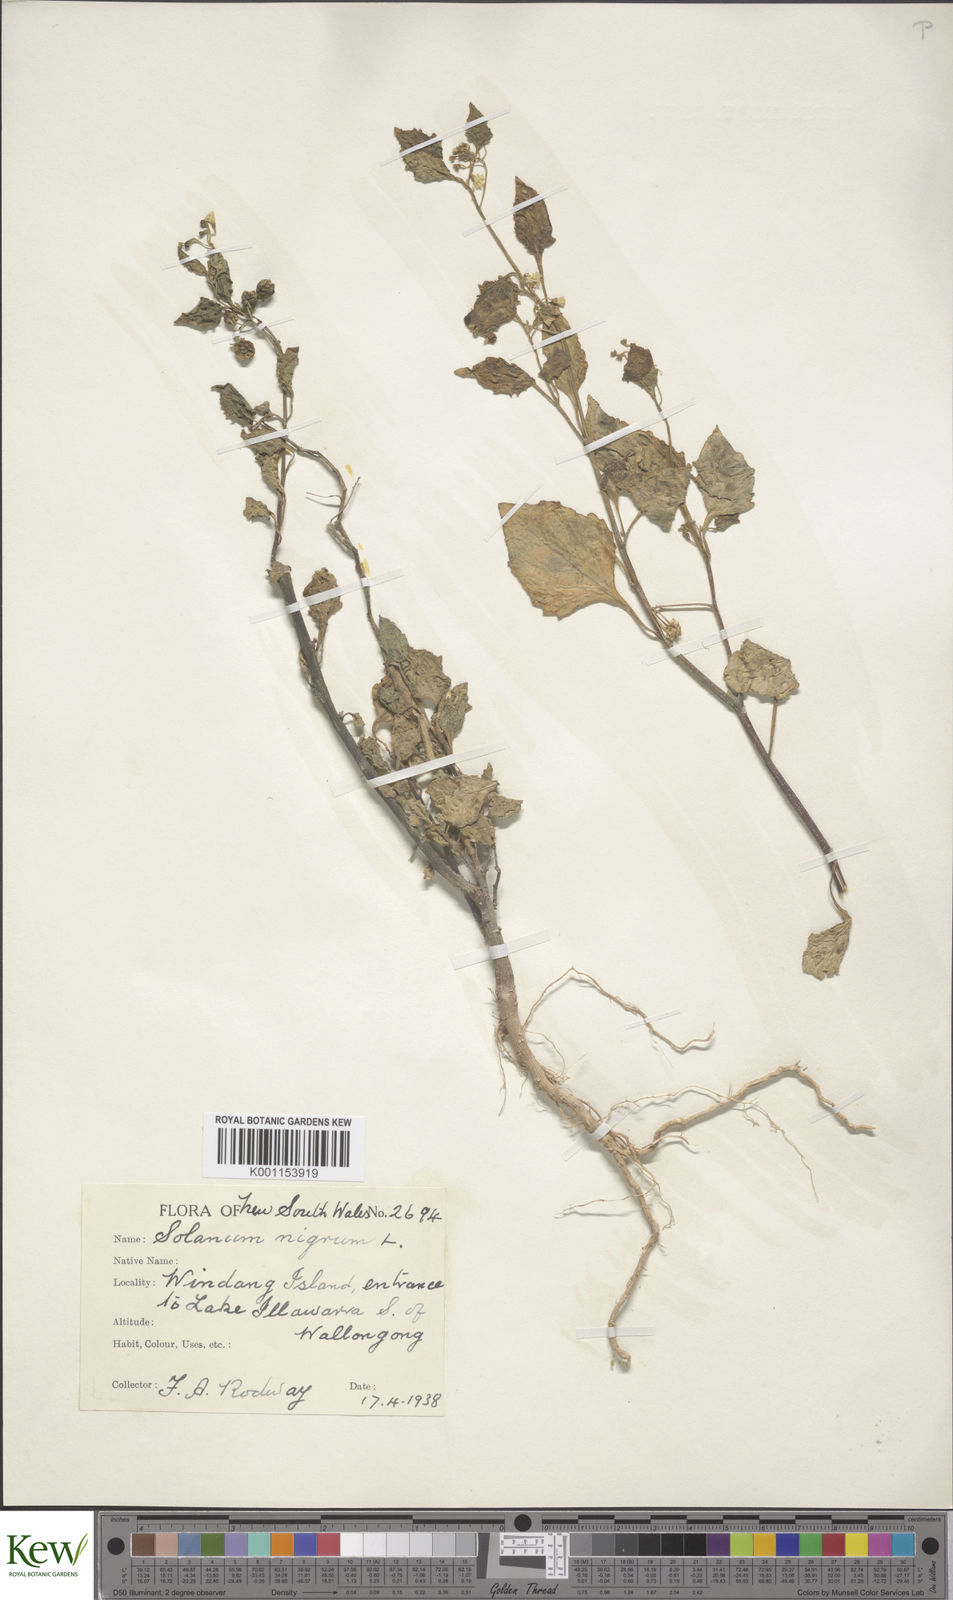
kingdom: Plantae
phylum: Tracheophyta
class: Magnoliopsida
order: Solanales
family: Solanaceae
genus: Solanum
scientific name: Solanum nigrum
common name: Black nightshade
